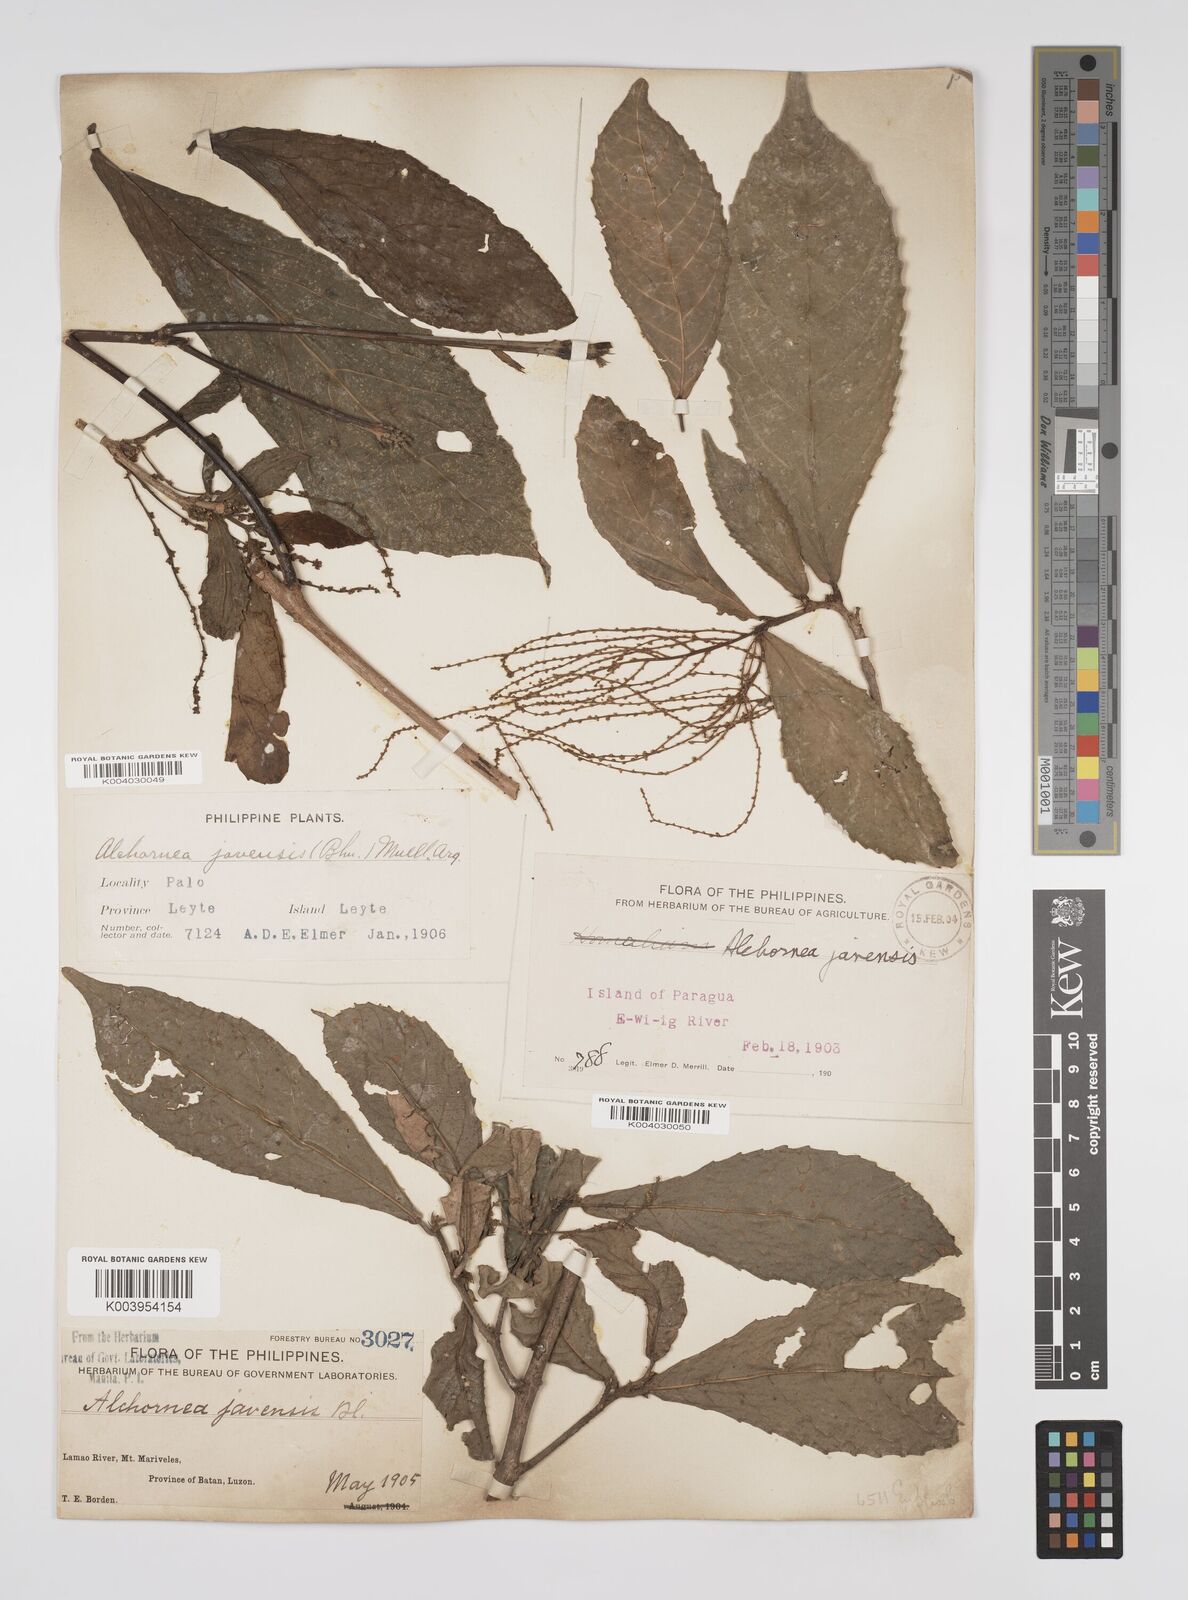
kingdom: Plantae
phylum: Tracheophyta
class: Magnoliopsida
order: Malpighiales
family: Euphorbiaceae
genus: Alchornea
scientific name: Alchornea rugosa
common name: Alchorntree
